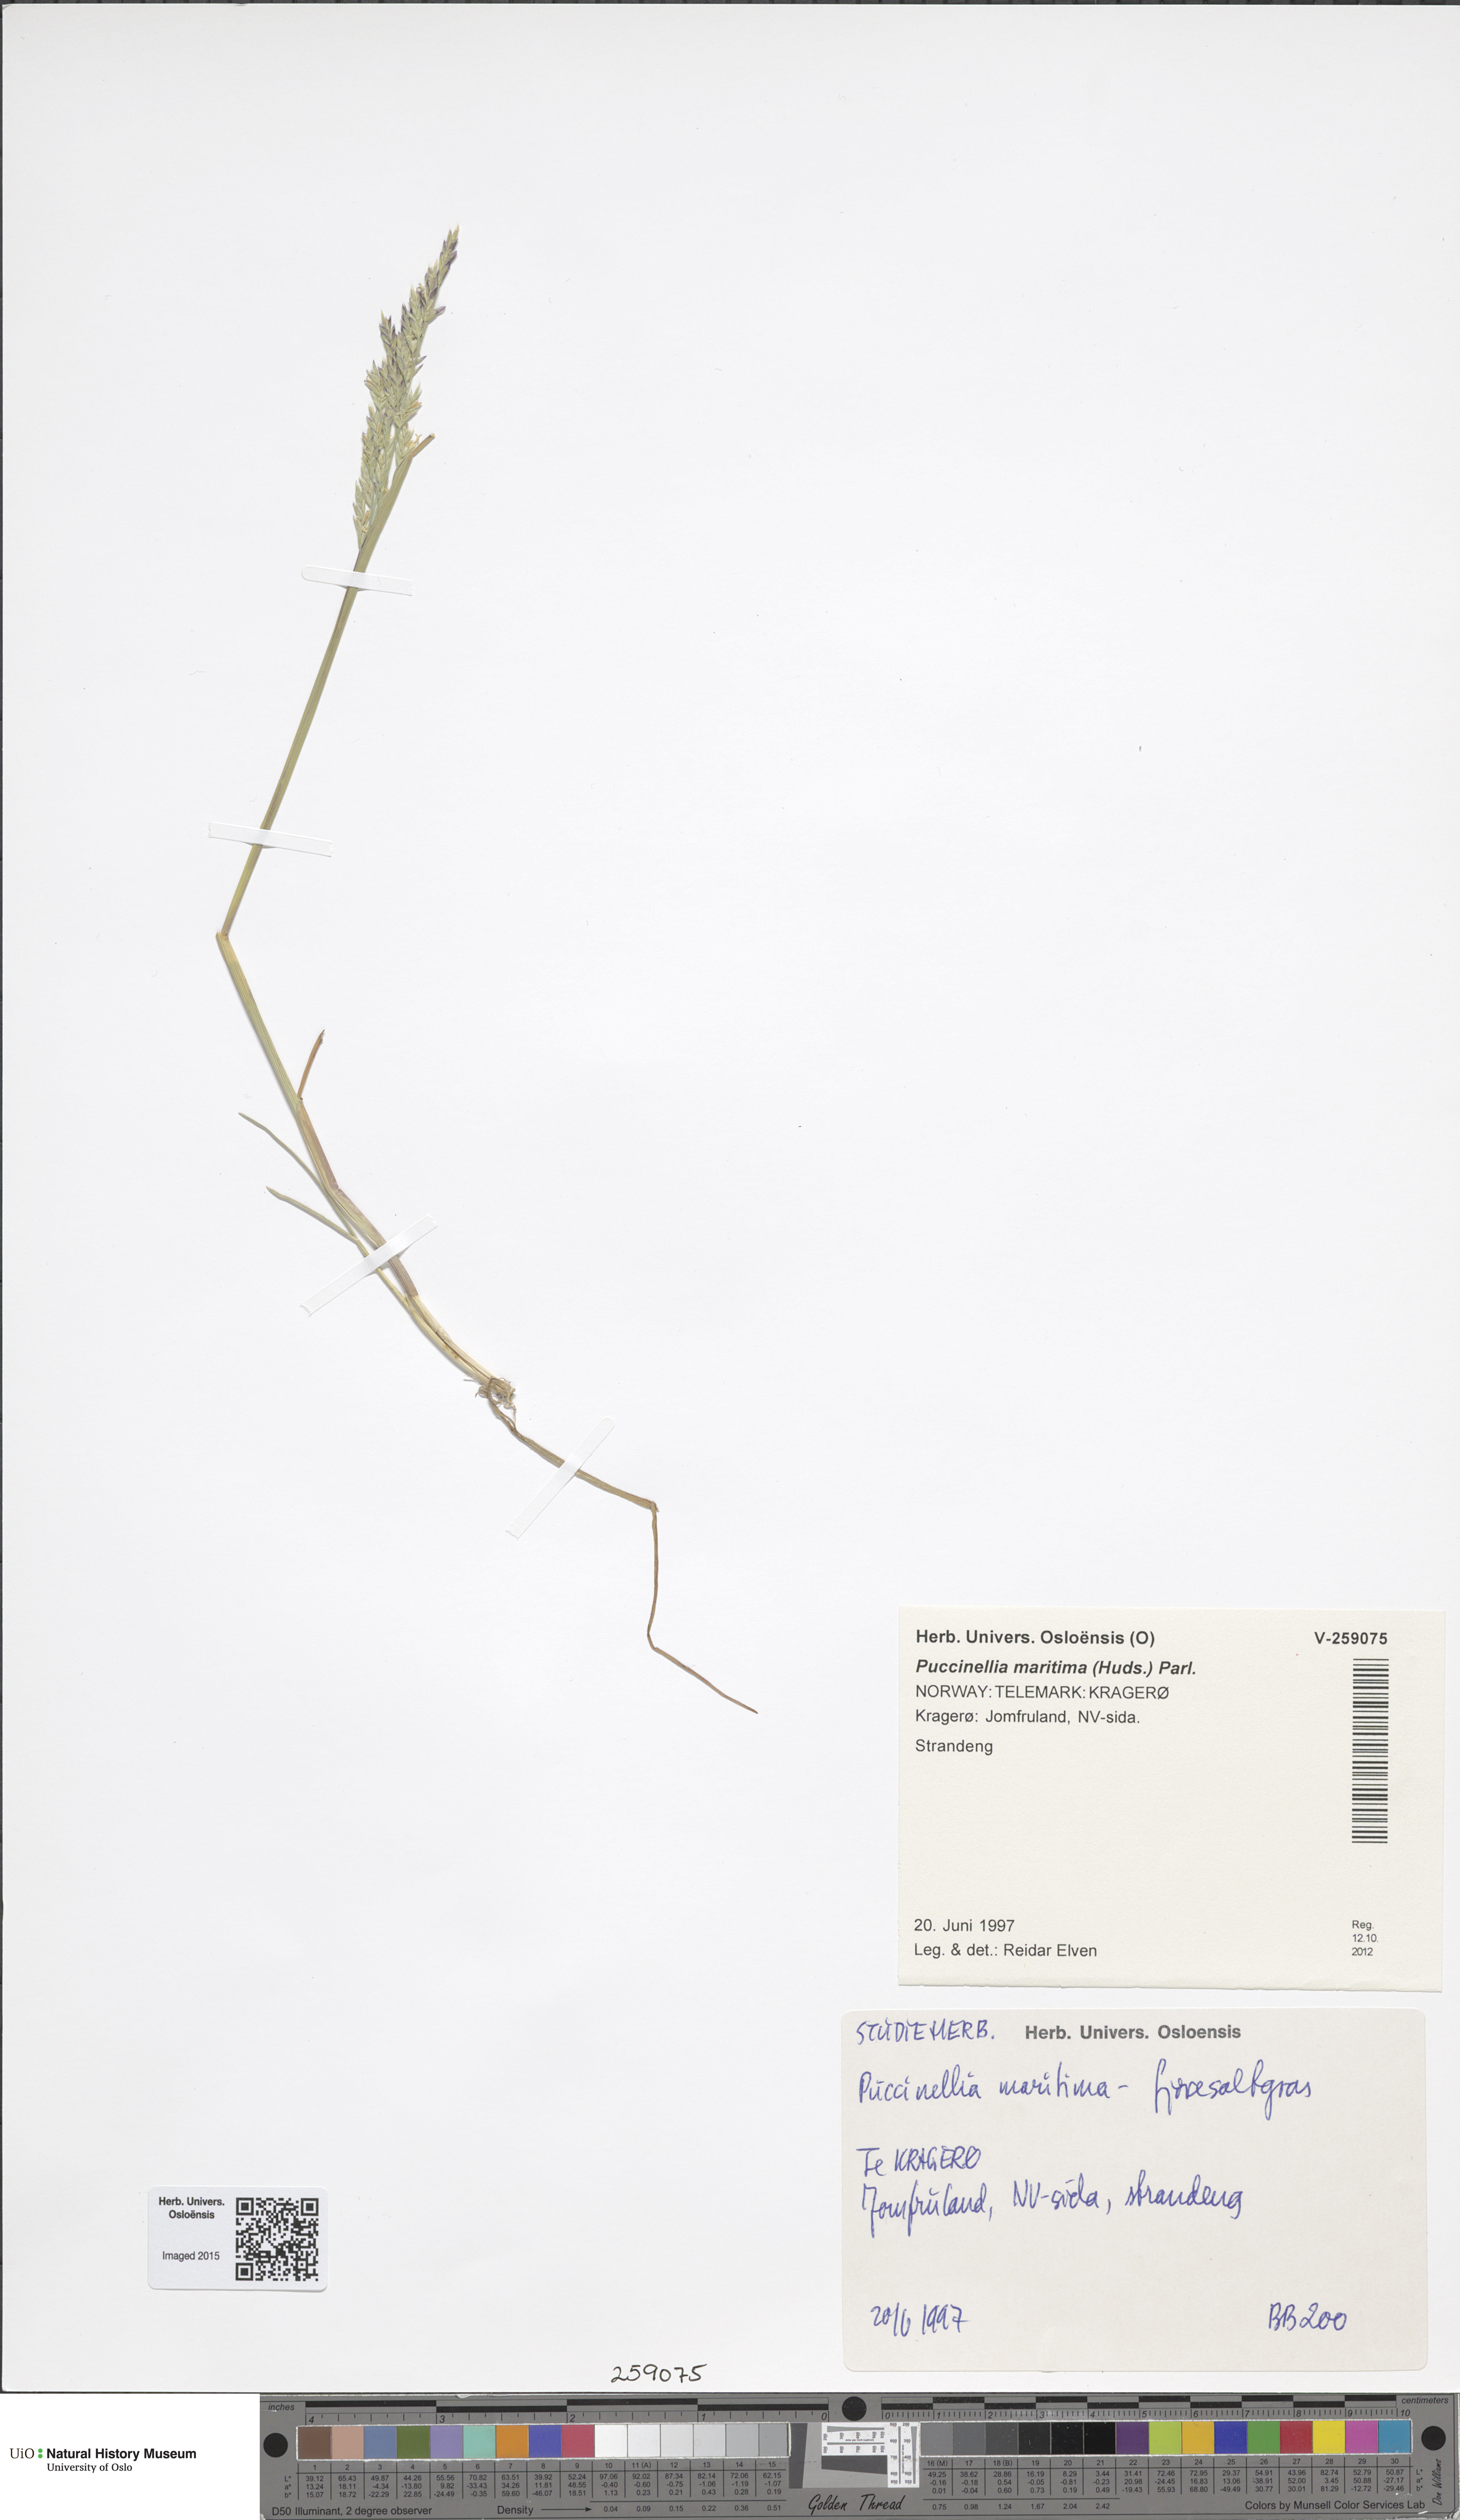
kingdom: Plantae
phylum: Tracheophyta
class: Liliopsida
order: Poales
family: Poaceae
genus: Puccinellia
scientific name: Puccinellia maritima
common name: Common saltmarsh grass
